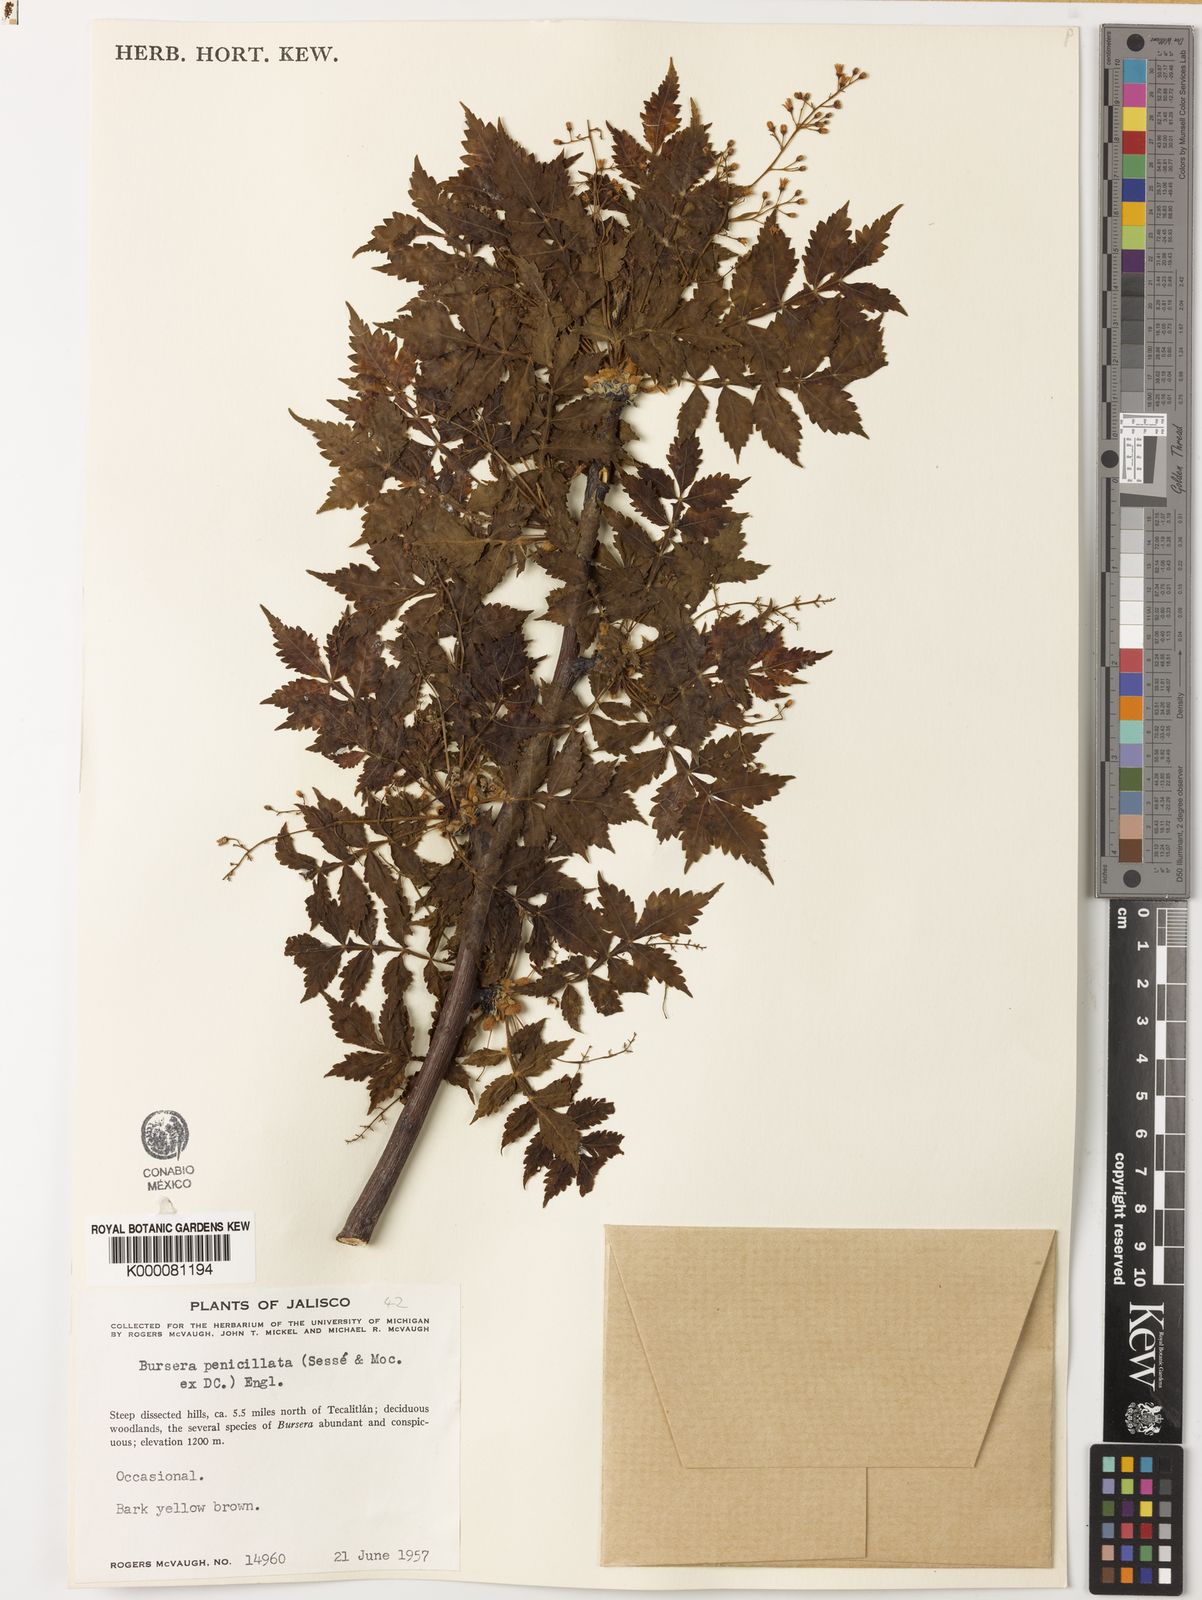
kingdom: Plantae
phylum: Tracheophyta
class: Magnoliopsida
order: Sapindales
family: Burseraceae
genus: Bursera
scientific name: Bursera penicillata
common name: Indian-lavender
